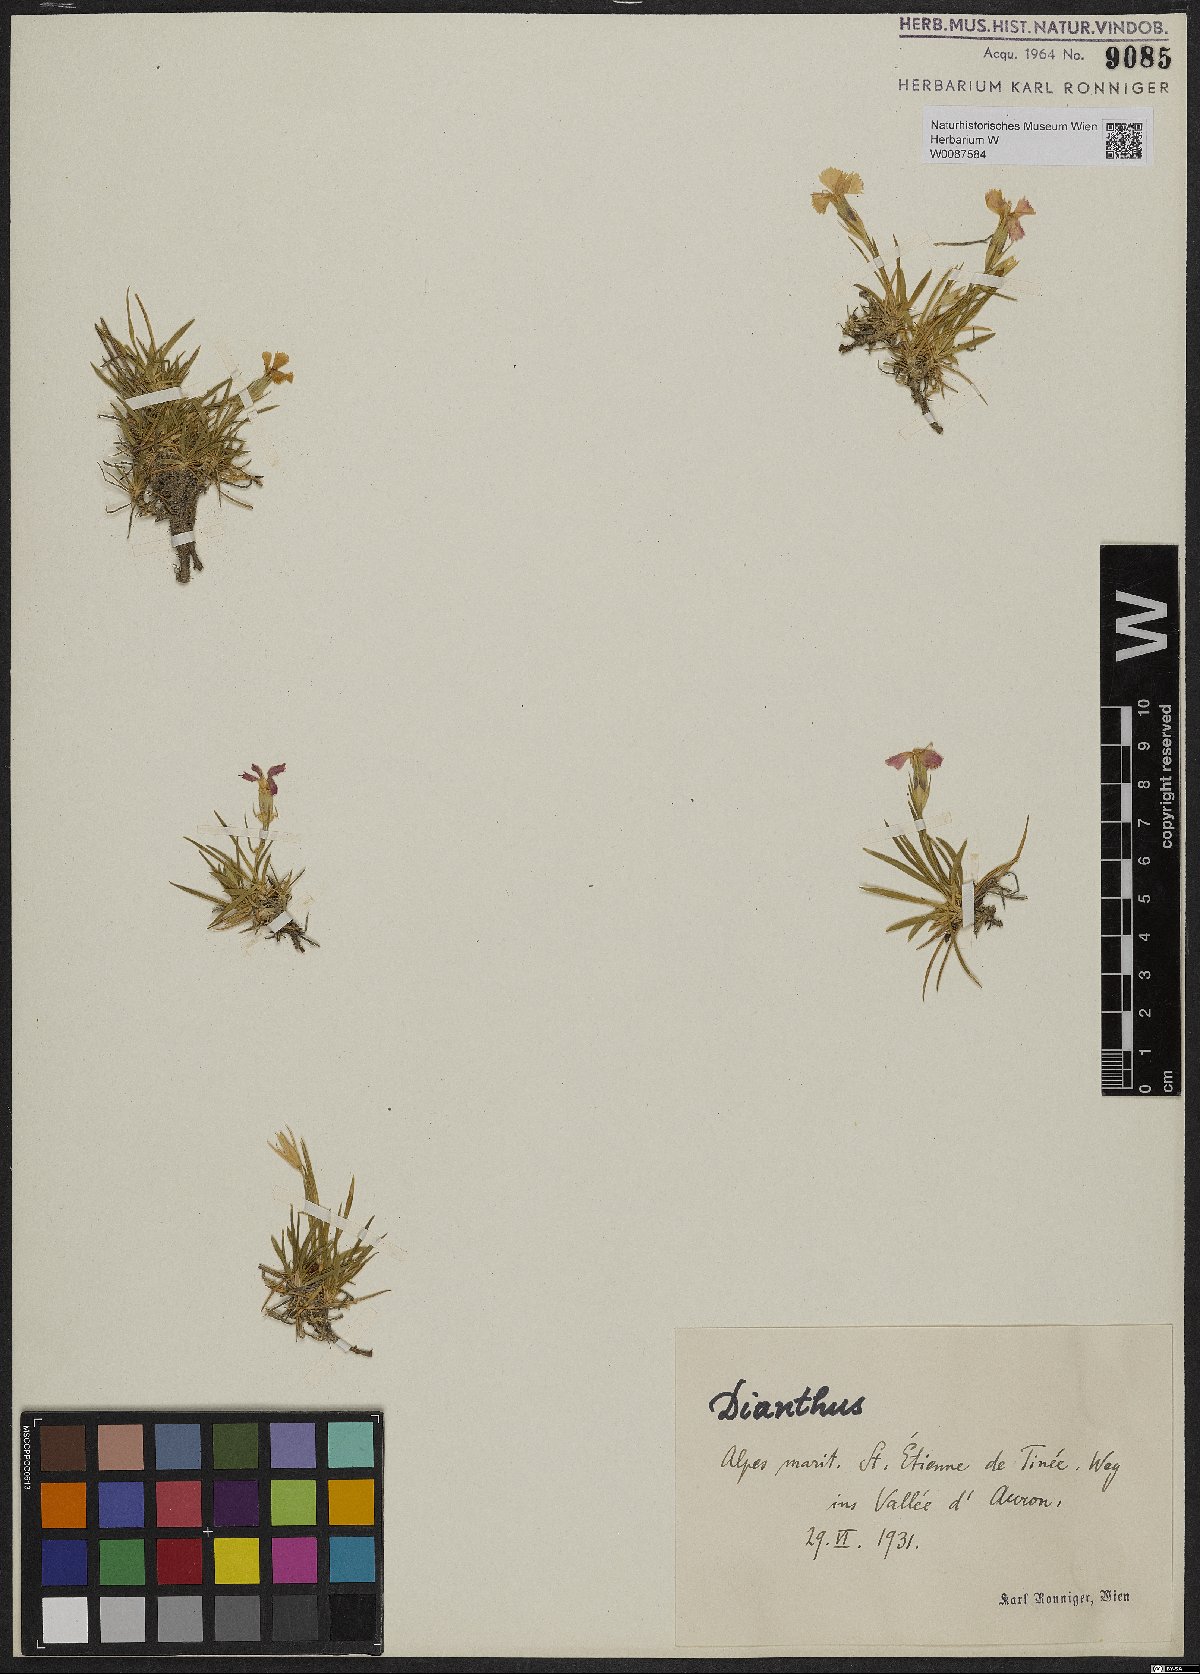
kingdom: Plantae
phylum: Tracheophyta
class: Magnoliopsida
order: Caryophyllales
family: Caryophyllaceae
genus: Dianthus
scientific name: Dianthus
